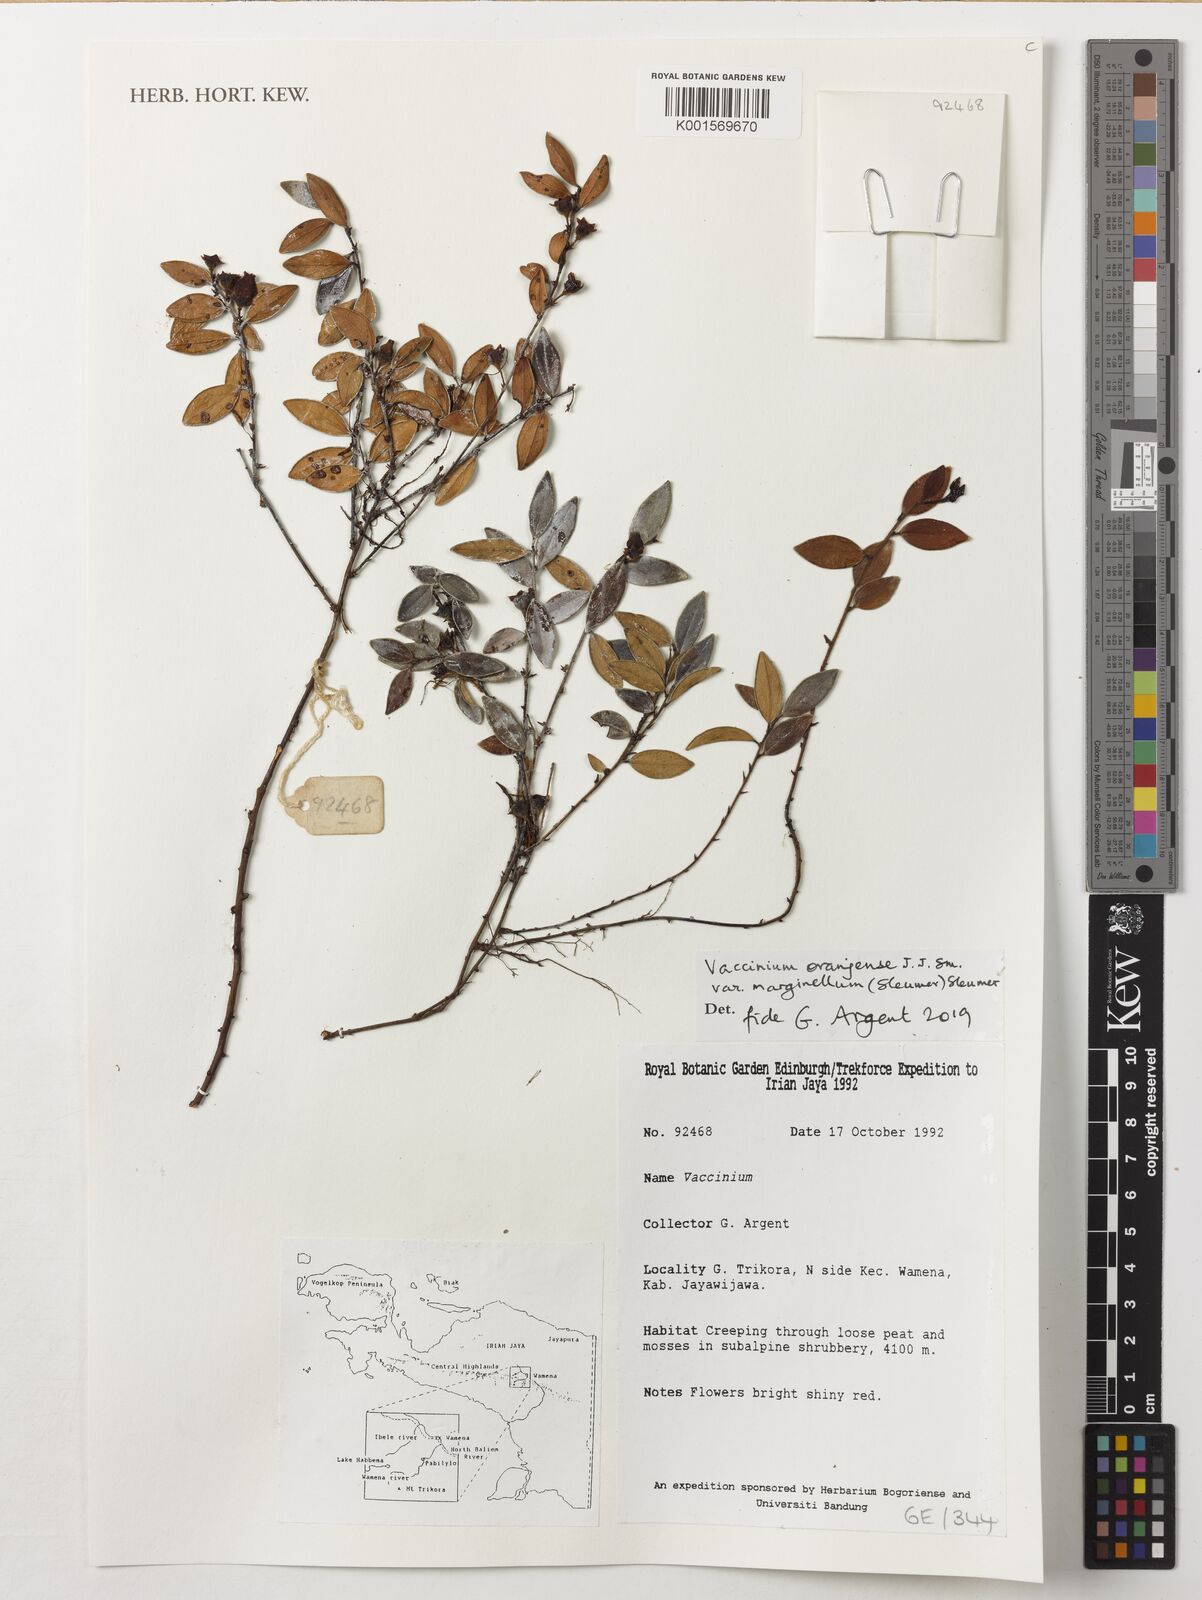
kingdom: Plantae
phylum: Tracheophyta
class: Magnoliopsida
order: Ericales
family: Ericaceae
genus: Vaccinium
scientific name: Vaccinium oranjense
